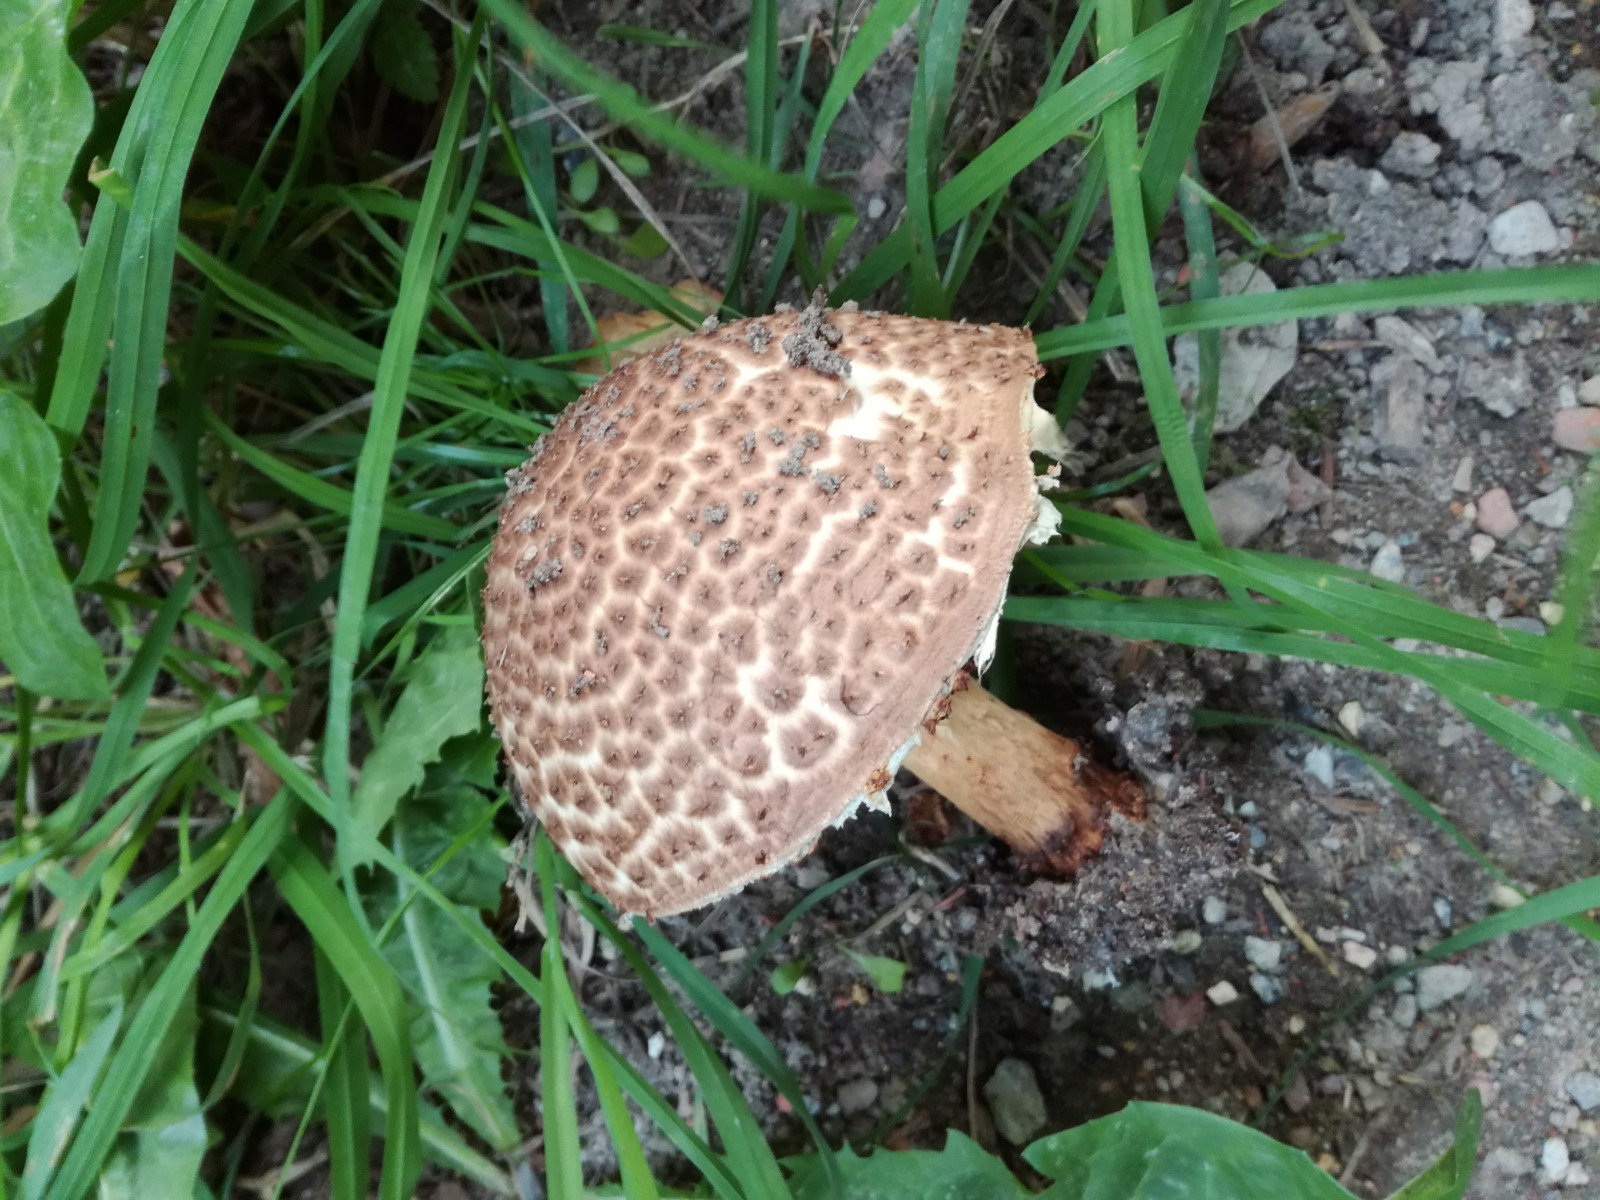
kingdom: Fungi
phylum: Basidiomycota
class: Agaricomycetes
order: Agaricales
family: Agaricaceae
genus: Echinoderma
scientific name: Echinoderma asperum
